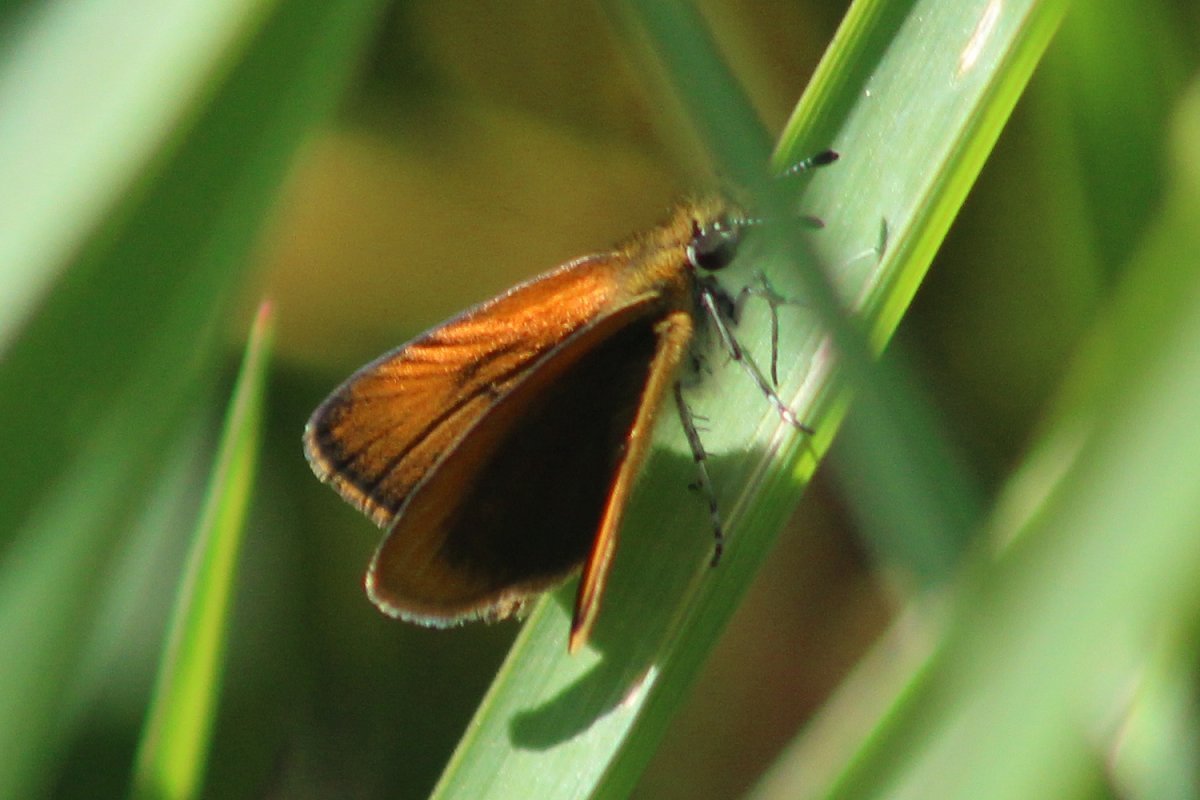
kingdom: Animalia
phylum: Arthropoda
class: Insecta
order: Lepidoptera
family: Hesperiidae
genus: Ancyloxypha
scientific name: Ancyloxypha numitor
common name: Least Skipper
